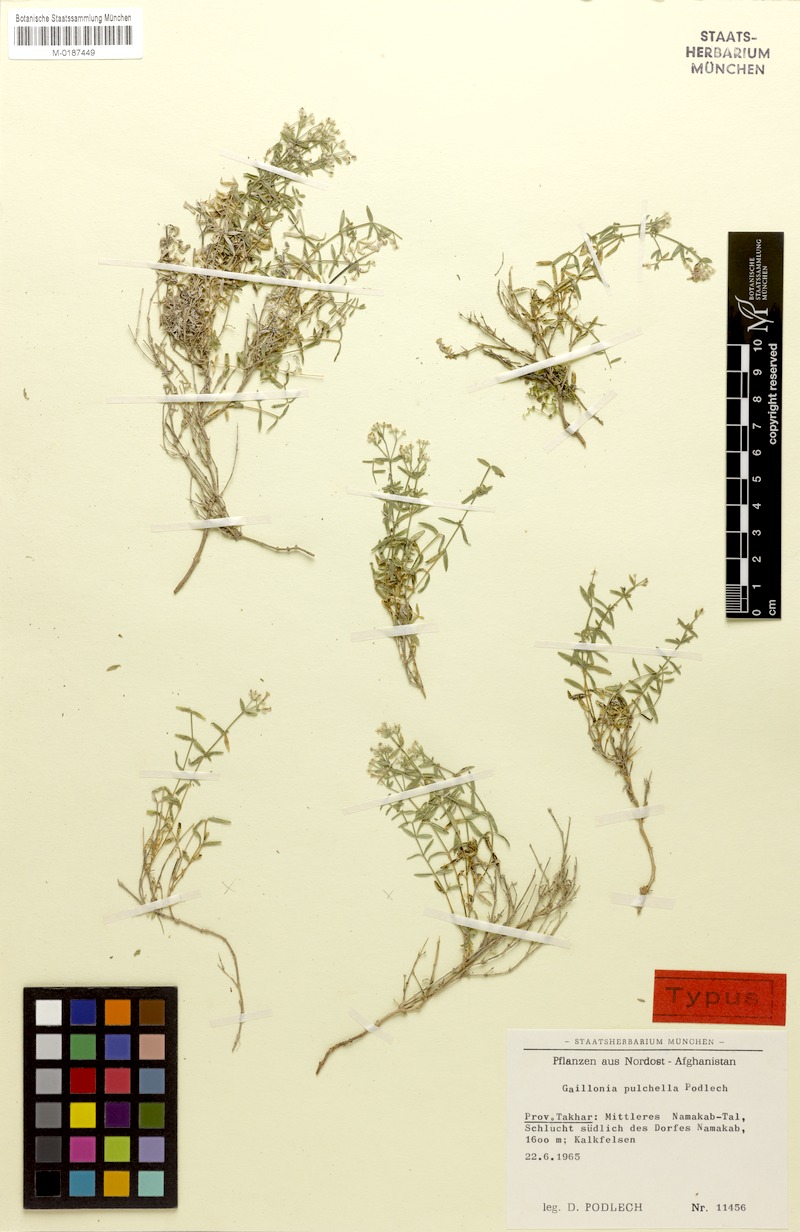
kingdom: Plantae
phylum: Tracheophyta
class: Magnoliopsida
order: Gentianales
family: Rubiaceae
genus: Asperula
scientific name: Asperula pulchella
